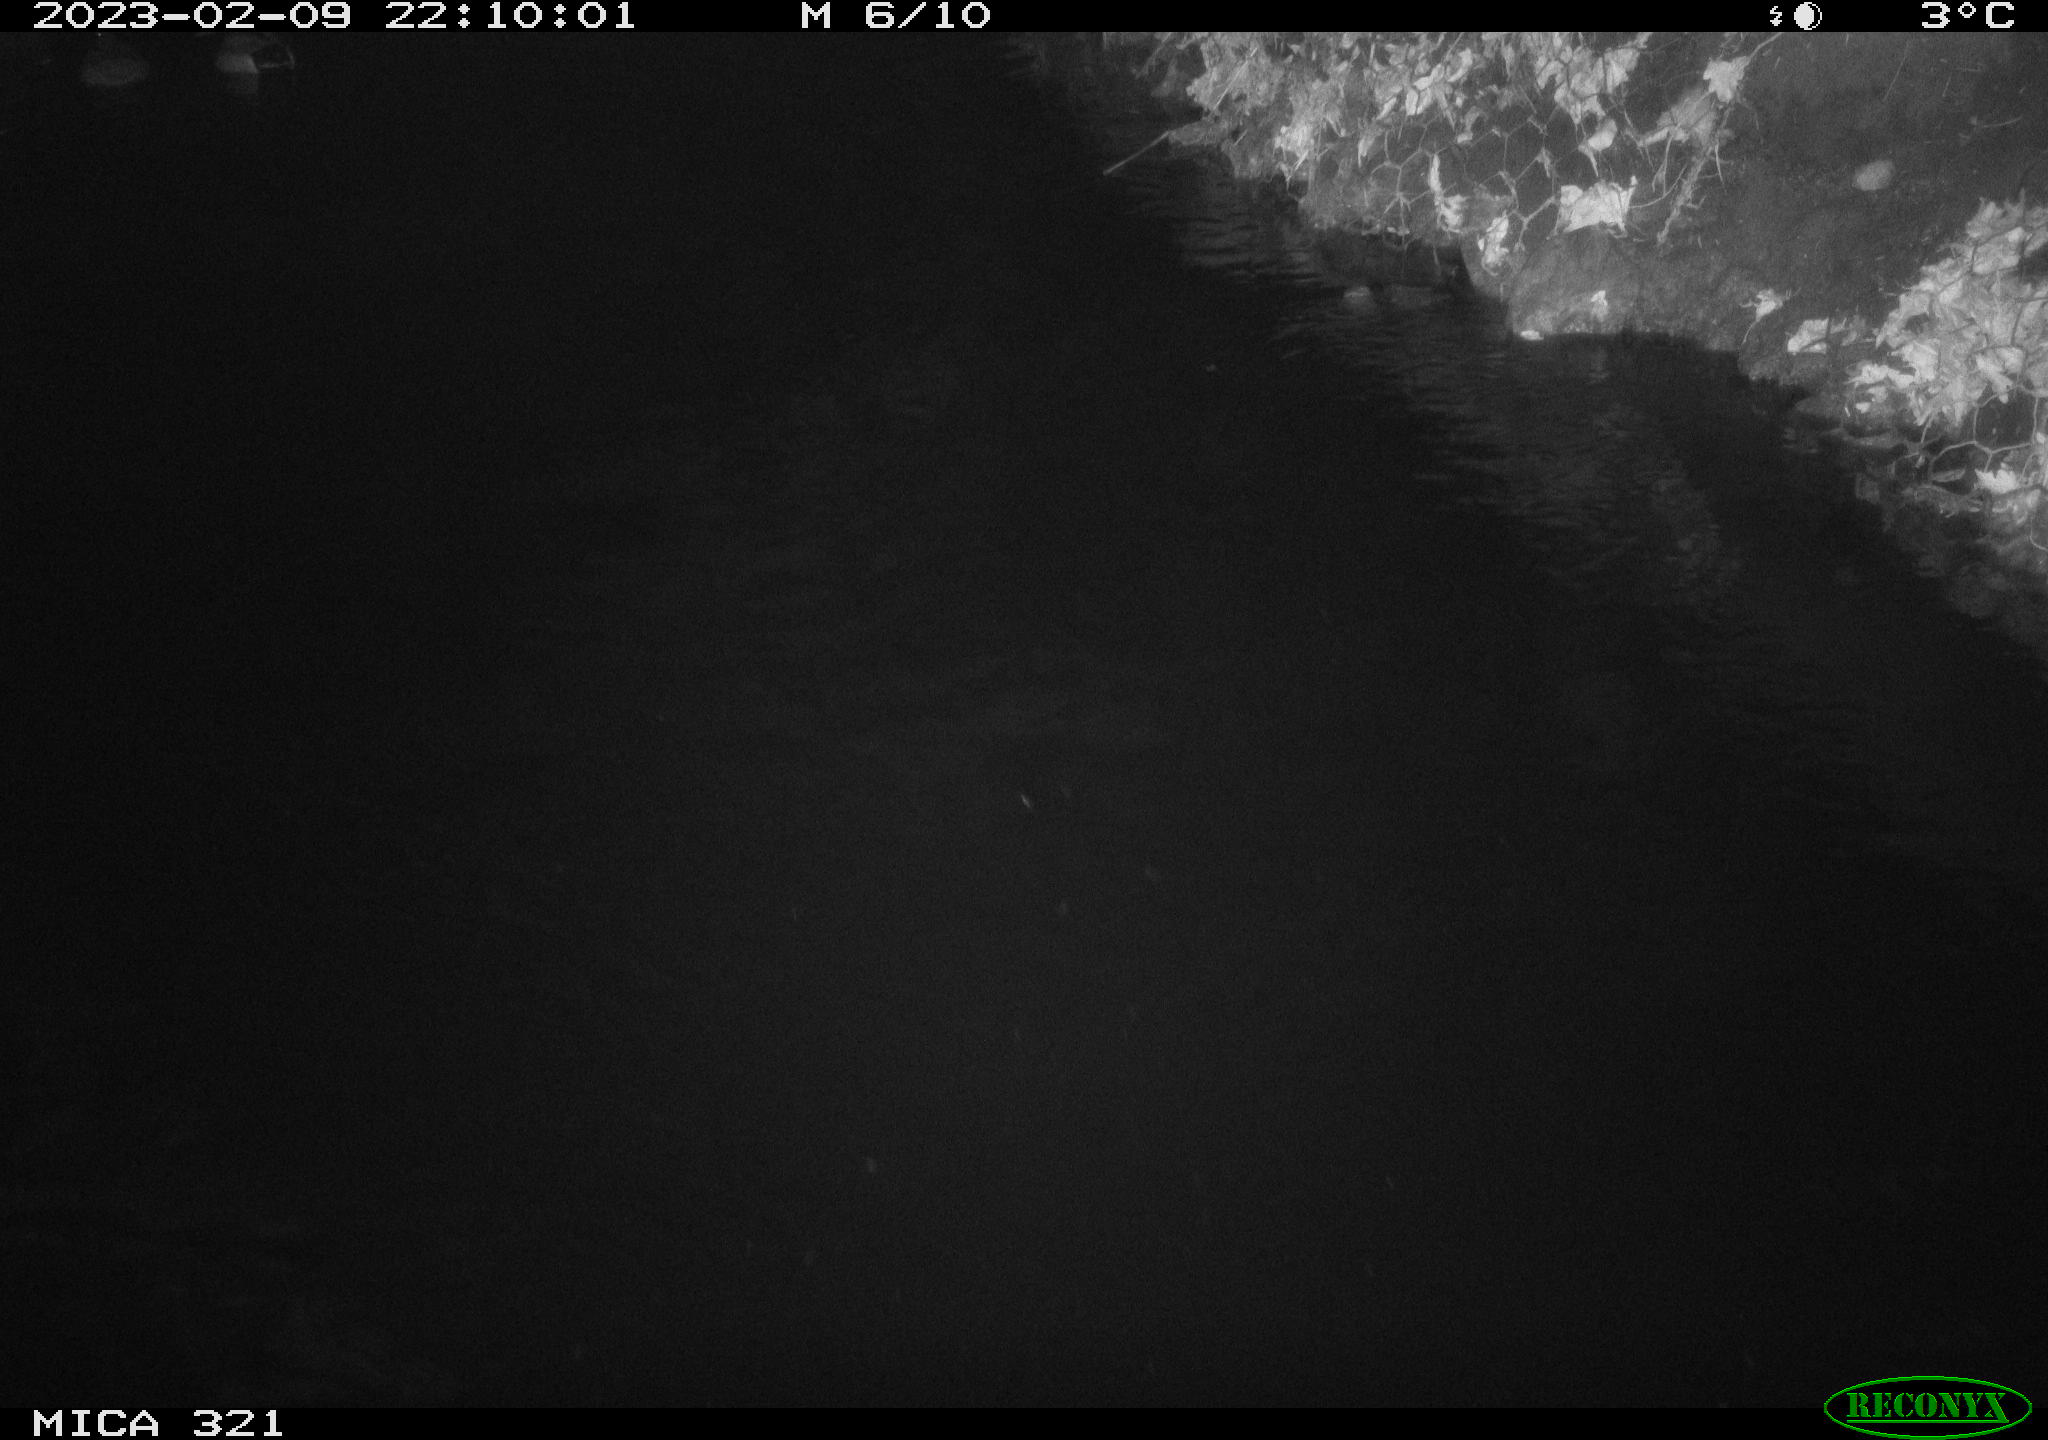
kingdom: Animalia
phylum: Chordata
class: Aves
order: Anseriformes
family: Anatidae
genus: Anas
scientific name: Anas
